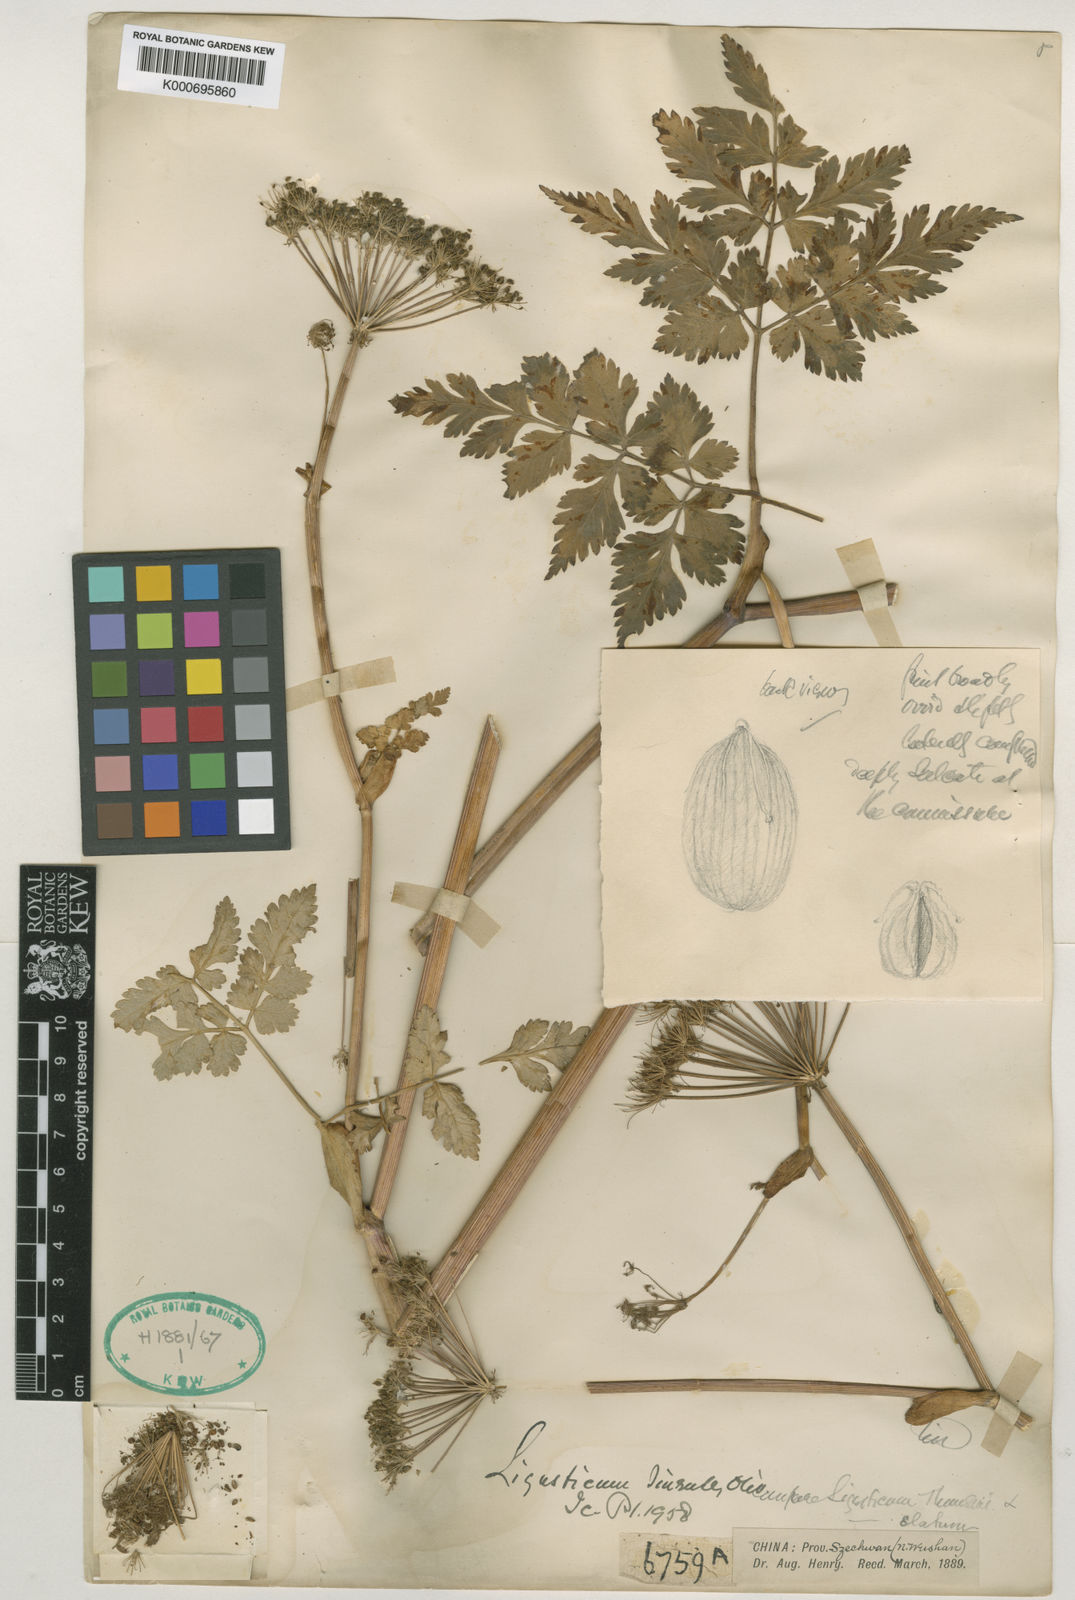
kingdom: Plantae
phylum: Tracheophyta
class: Magnoliopsida
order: Apiales
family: Apiaceae
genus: Conioselinum
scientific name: Conioselinum anthriscoides
